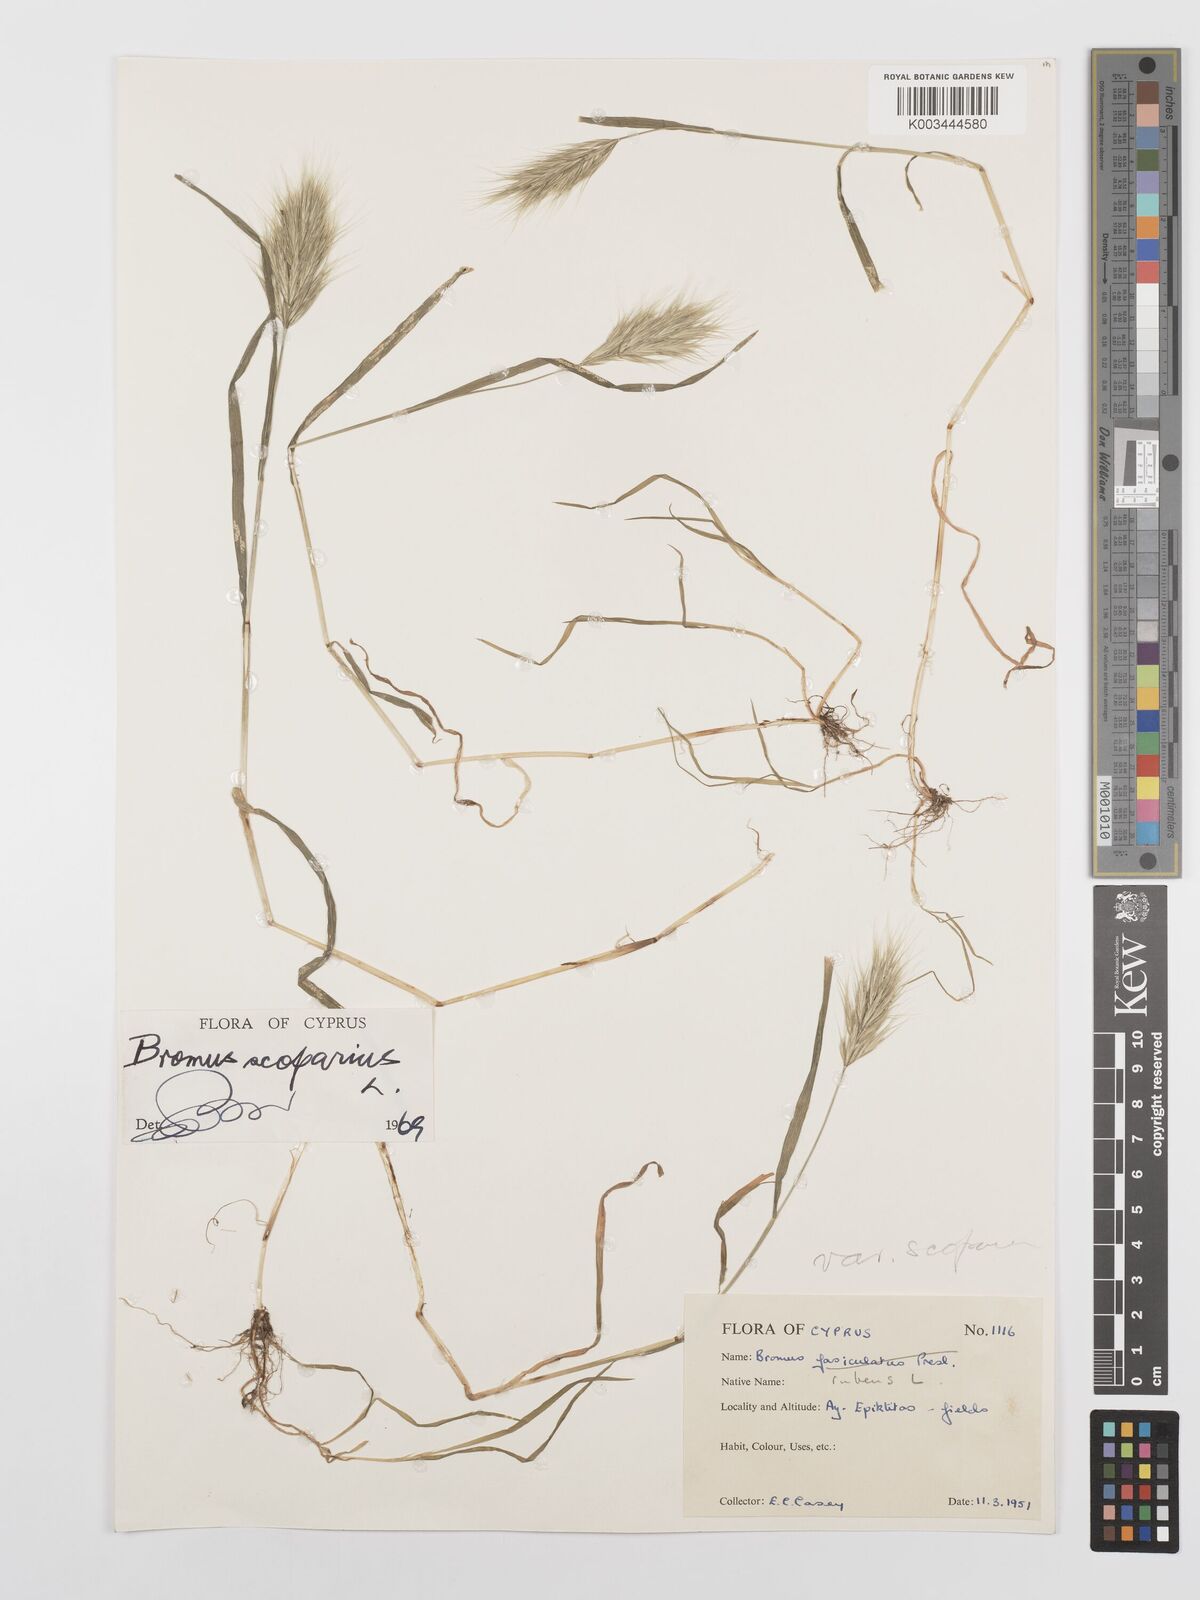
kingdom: Plantae
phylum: Tracheophyta
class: Liliopsida
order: Poales
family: Poaceae
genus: Bromus
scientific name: Bromus scoparius
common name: Broom brome
